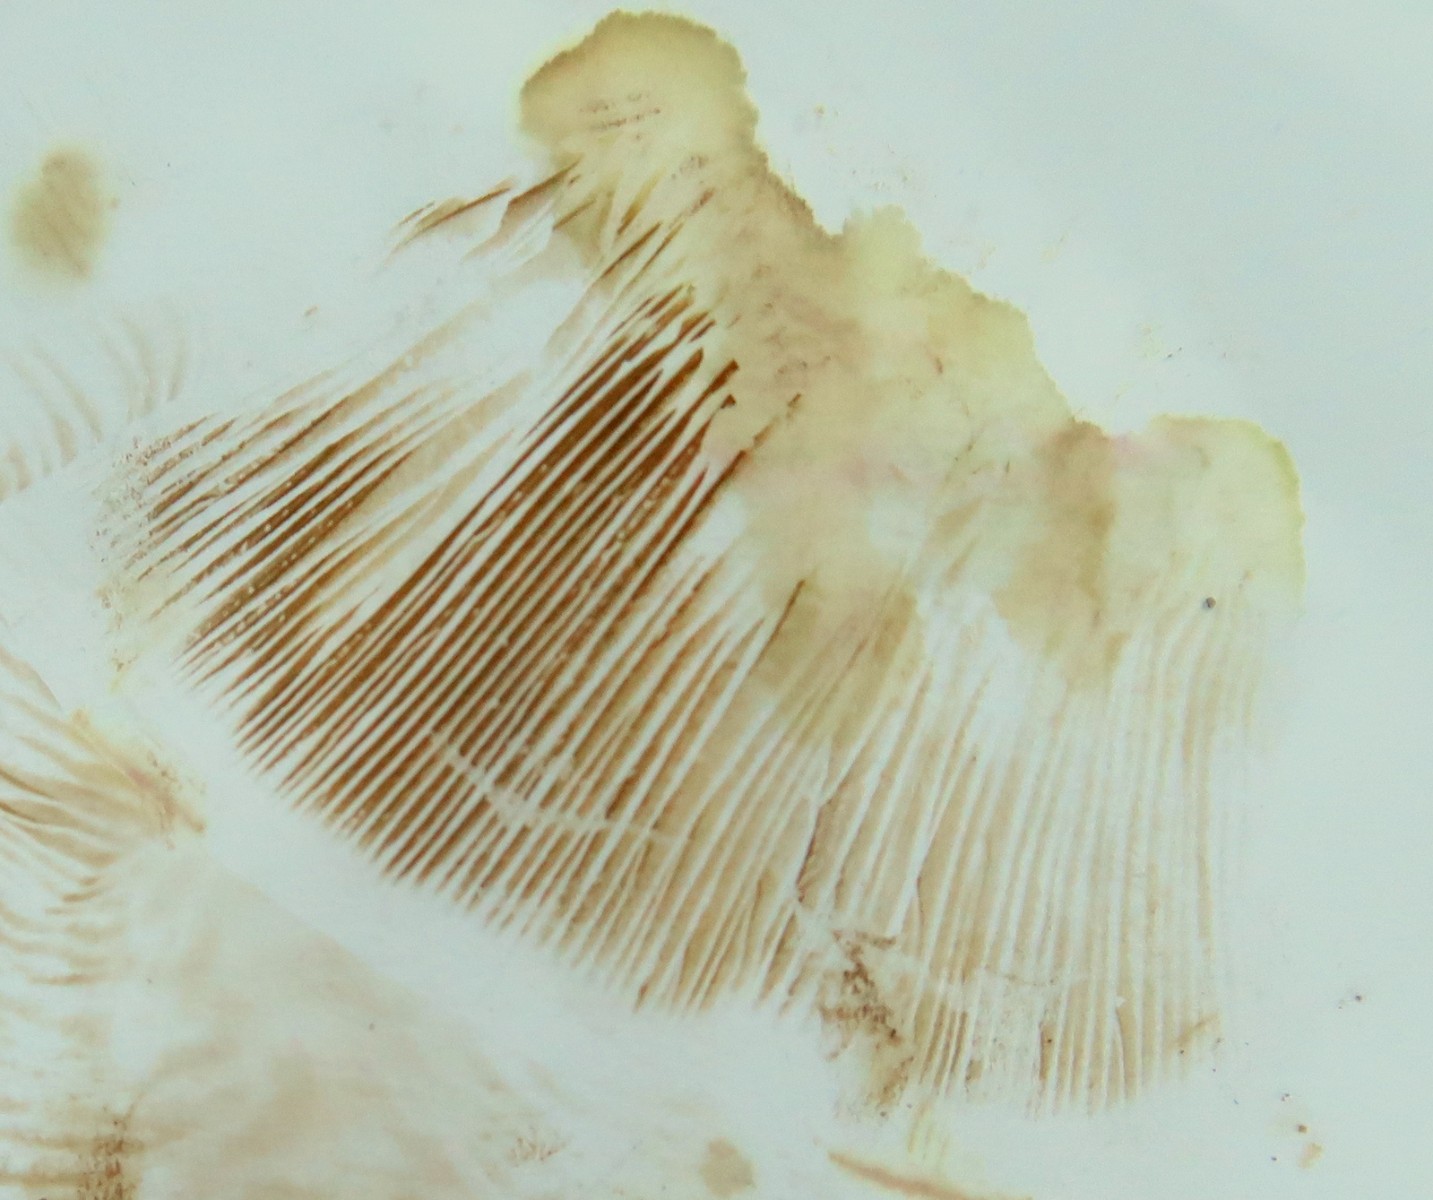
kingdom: Fungi
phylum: Basidiomycota
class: Agaricomycetes
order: Boletales
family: Paxillaceae
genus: Paxillus
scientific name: Paxillus
